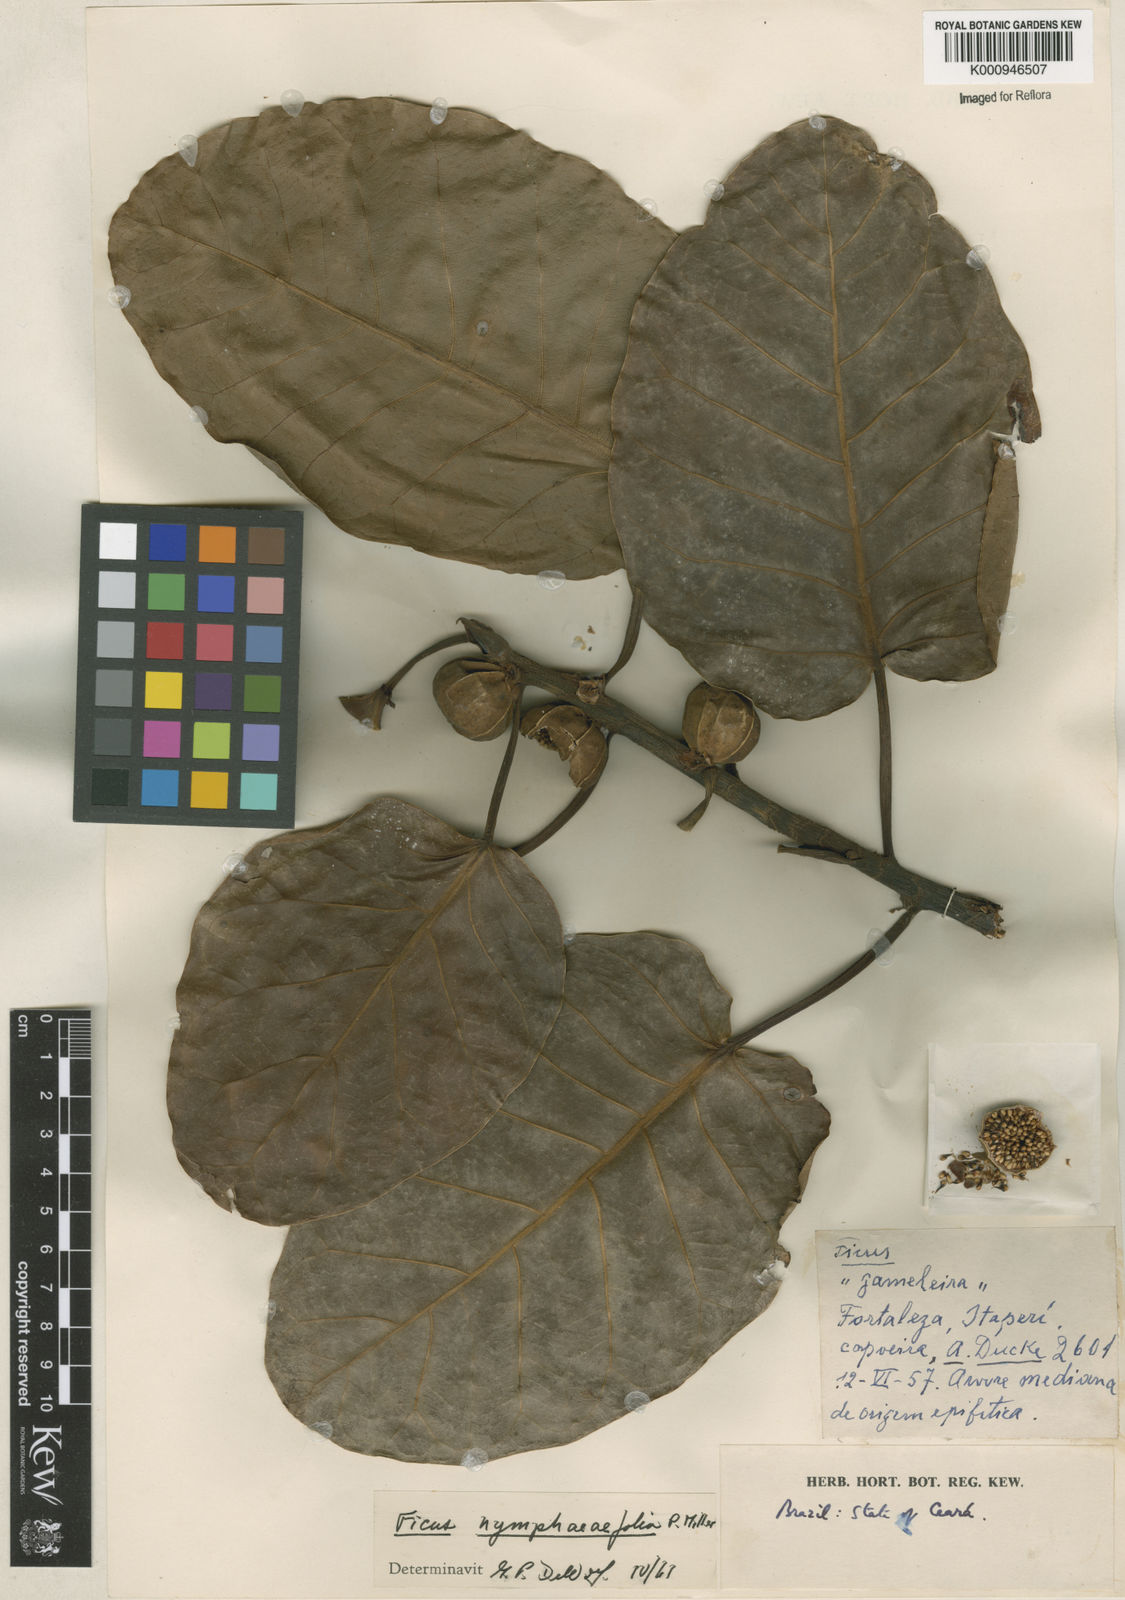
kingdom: Plantae
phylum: Tracheophyta
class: Magnoliopsida
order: Rosales
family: Moraceae
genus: Ficus
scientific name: Ficus nymphaeifolia
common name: Fig
